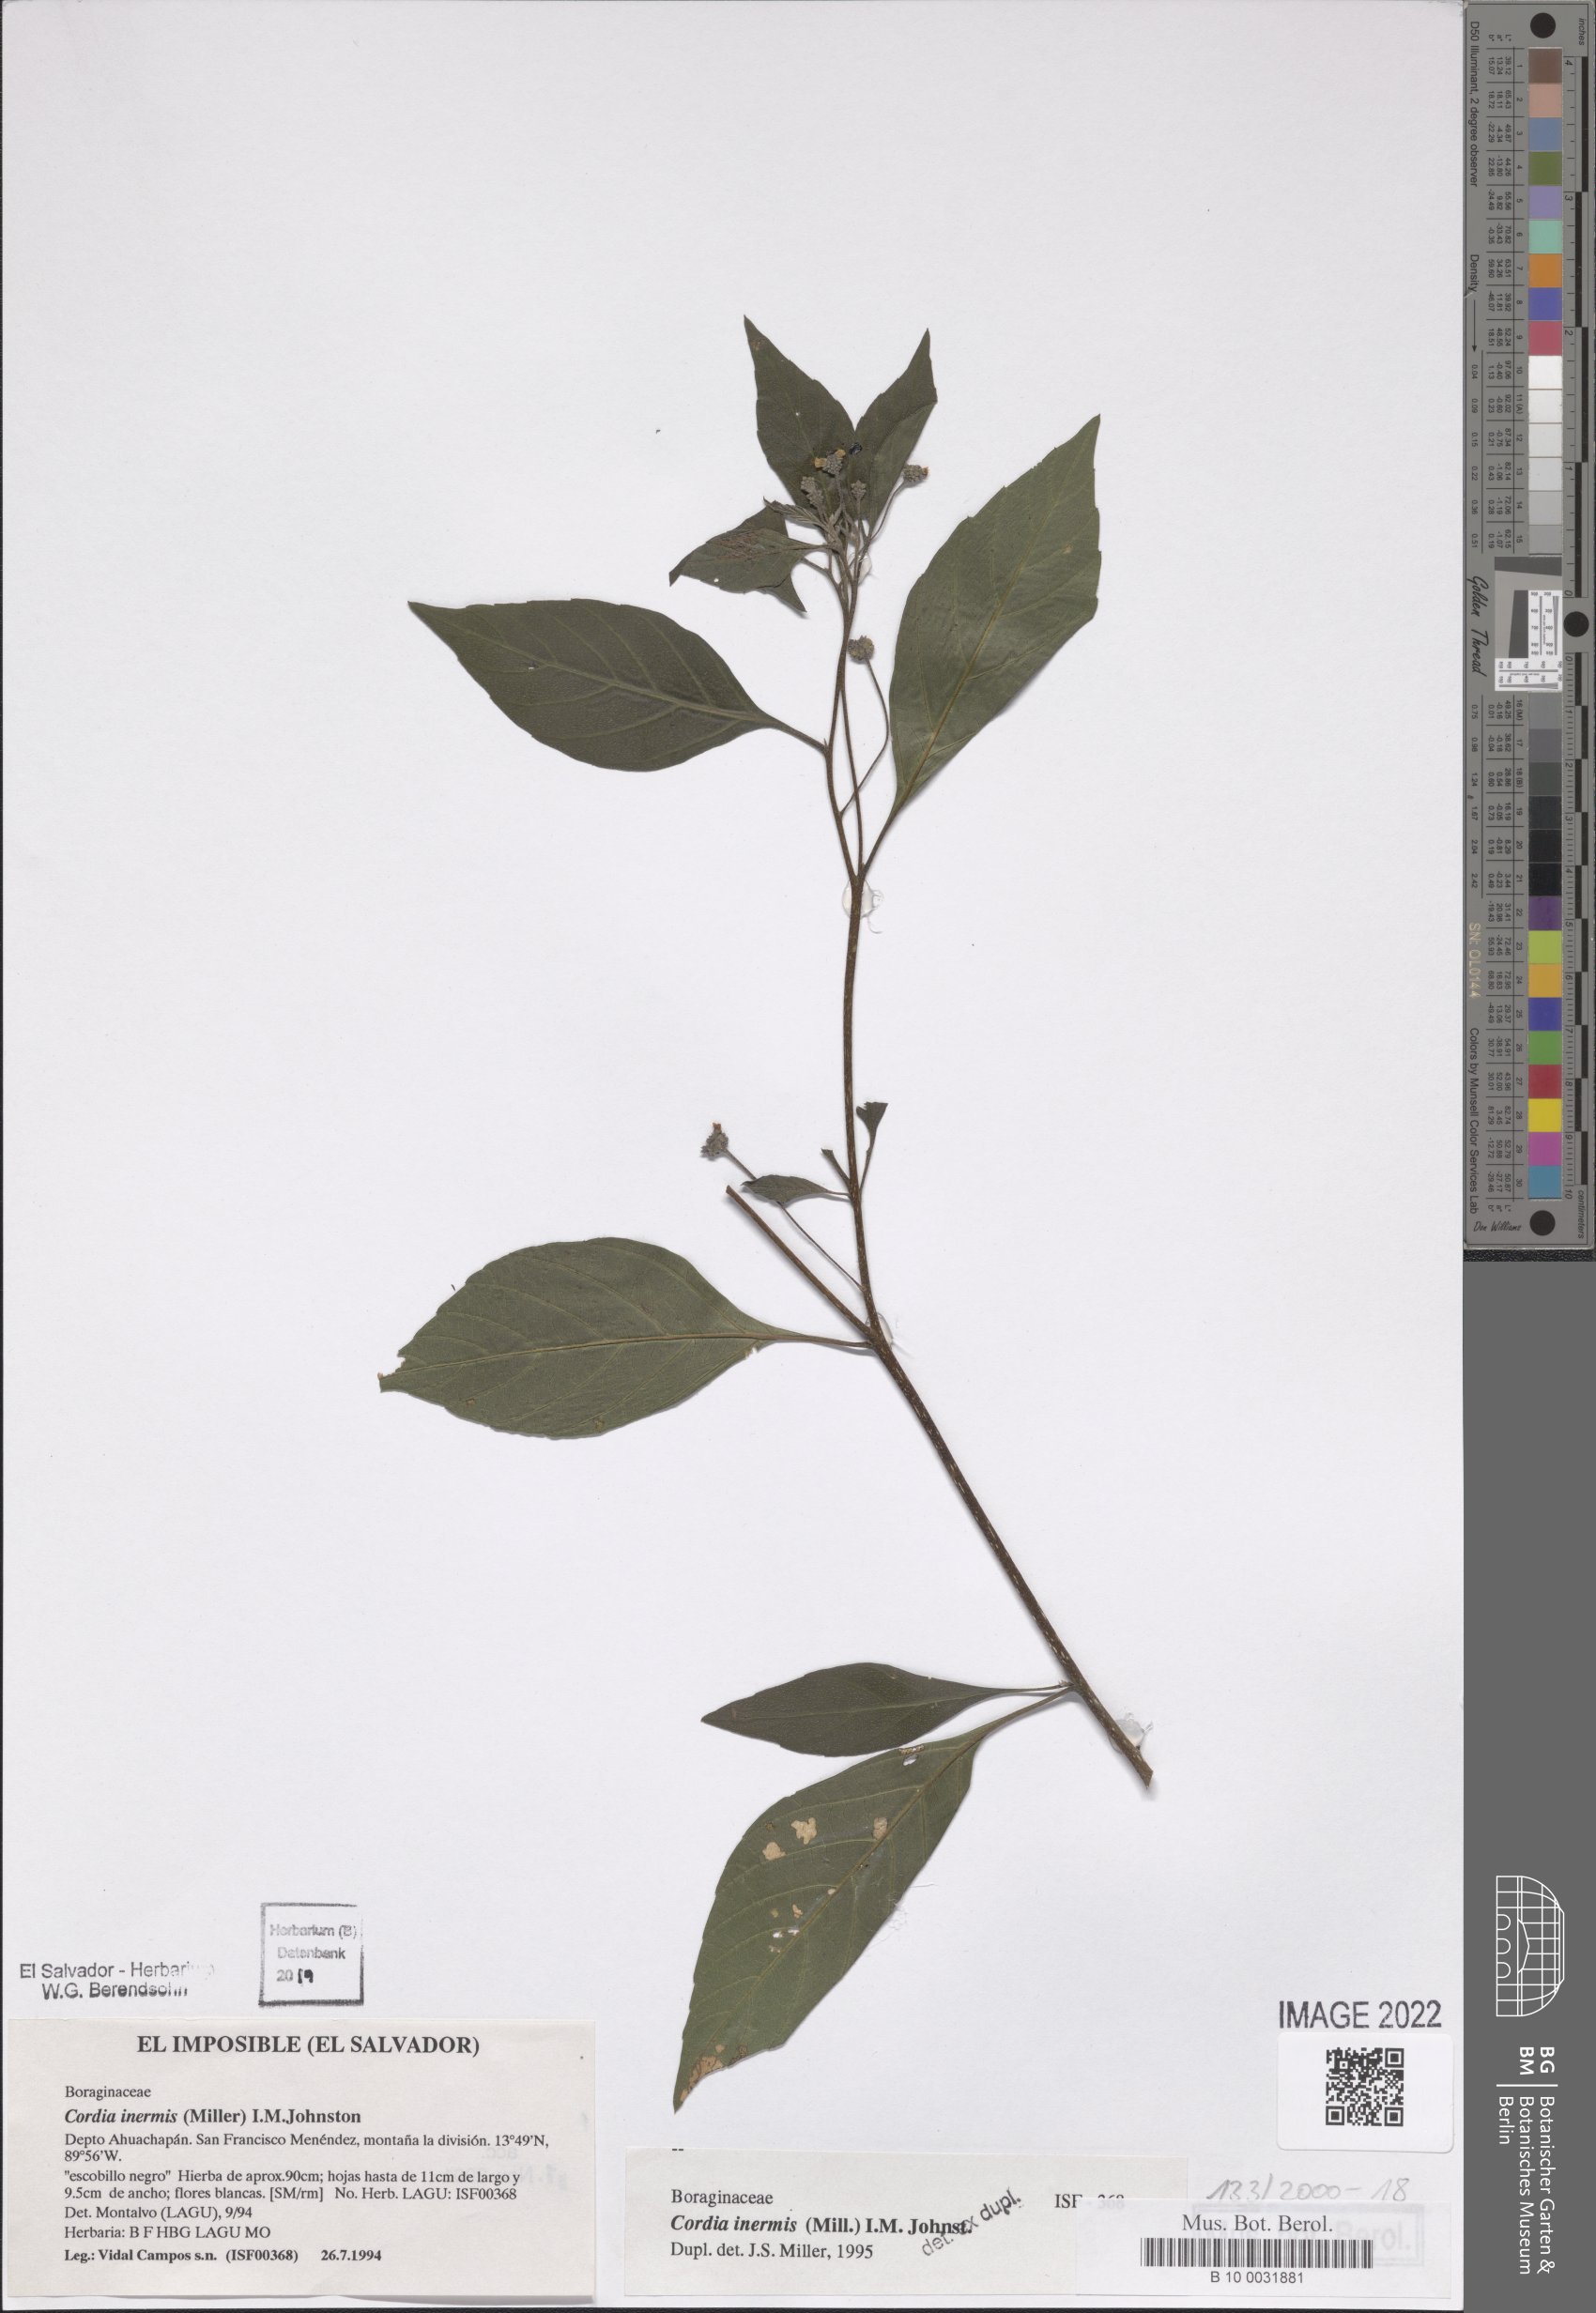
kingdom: Plantae
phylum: Tracheophyta
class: Magnoliopsida
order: Boraginales
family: Cordiaceae
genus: Varronia
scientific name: Varronia inermis
